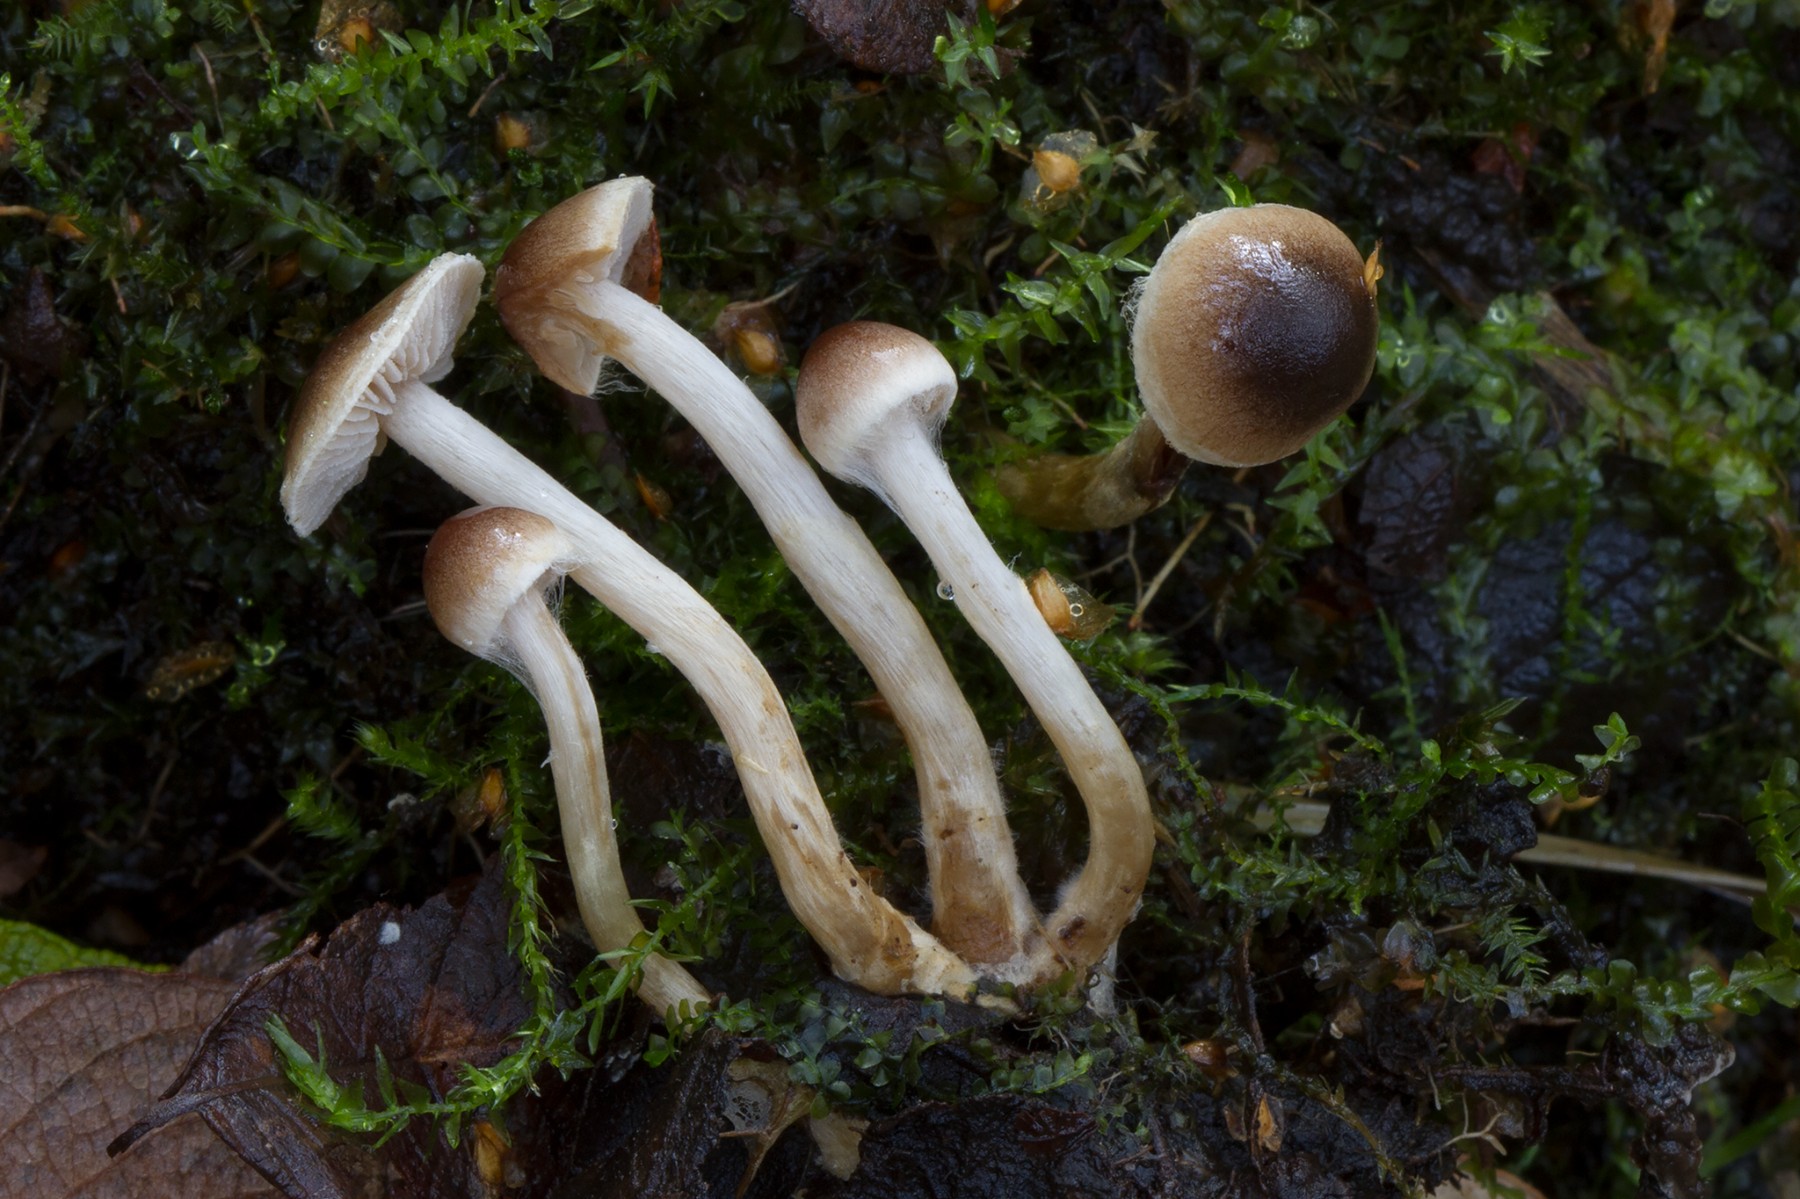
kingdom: Fungi
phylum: Basidiomycota
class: Agaricomycetes
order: Agaricales
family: Hymenogastraceae
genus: Hebeloma
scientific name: Hebeloma discomorbidum
